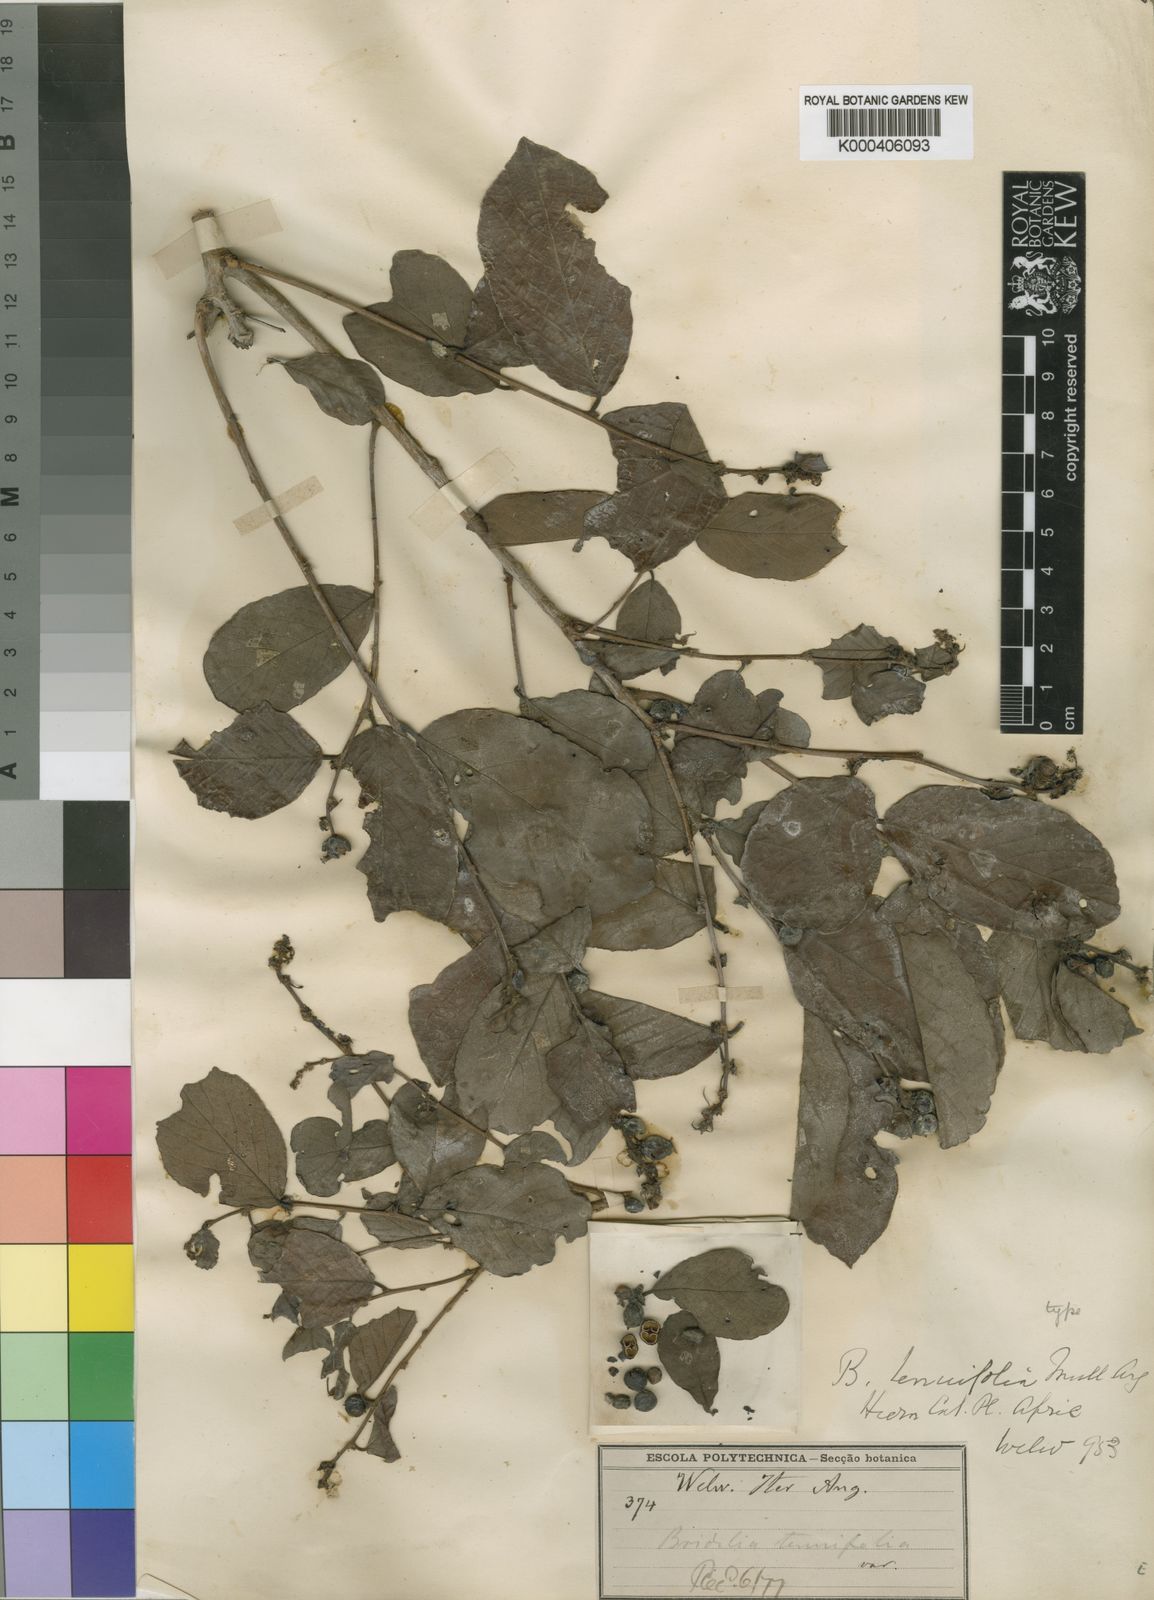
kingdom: Plantae
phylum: Tracheophyta
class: Magnoliopsida
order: Malpighiales
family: Phyllanthaceae
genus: Bridelia
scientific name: Bridelia
